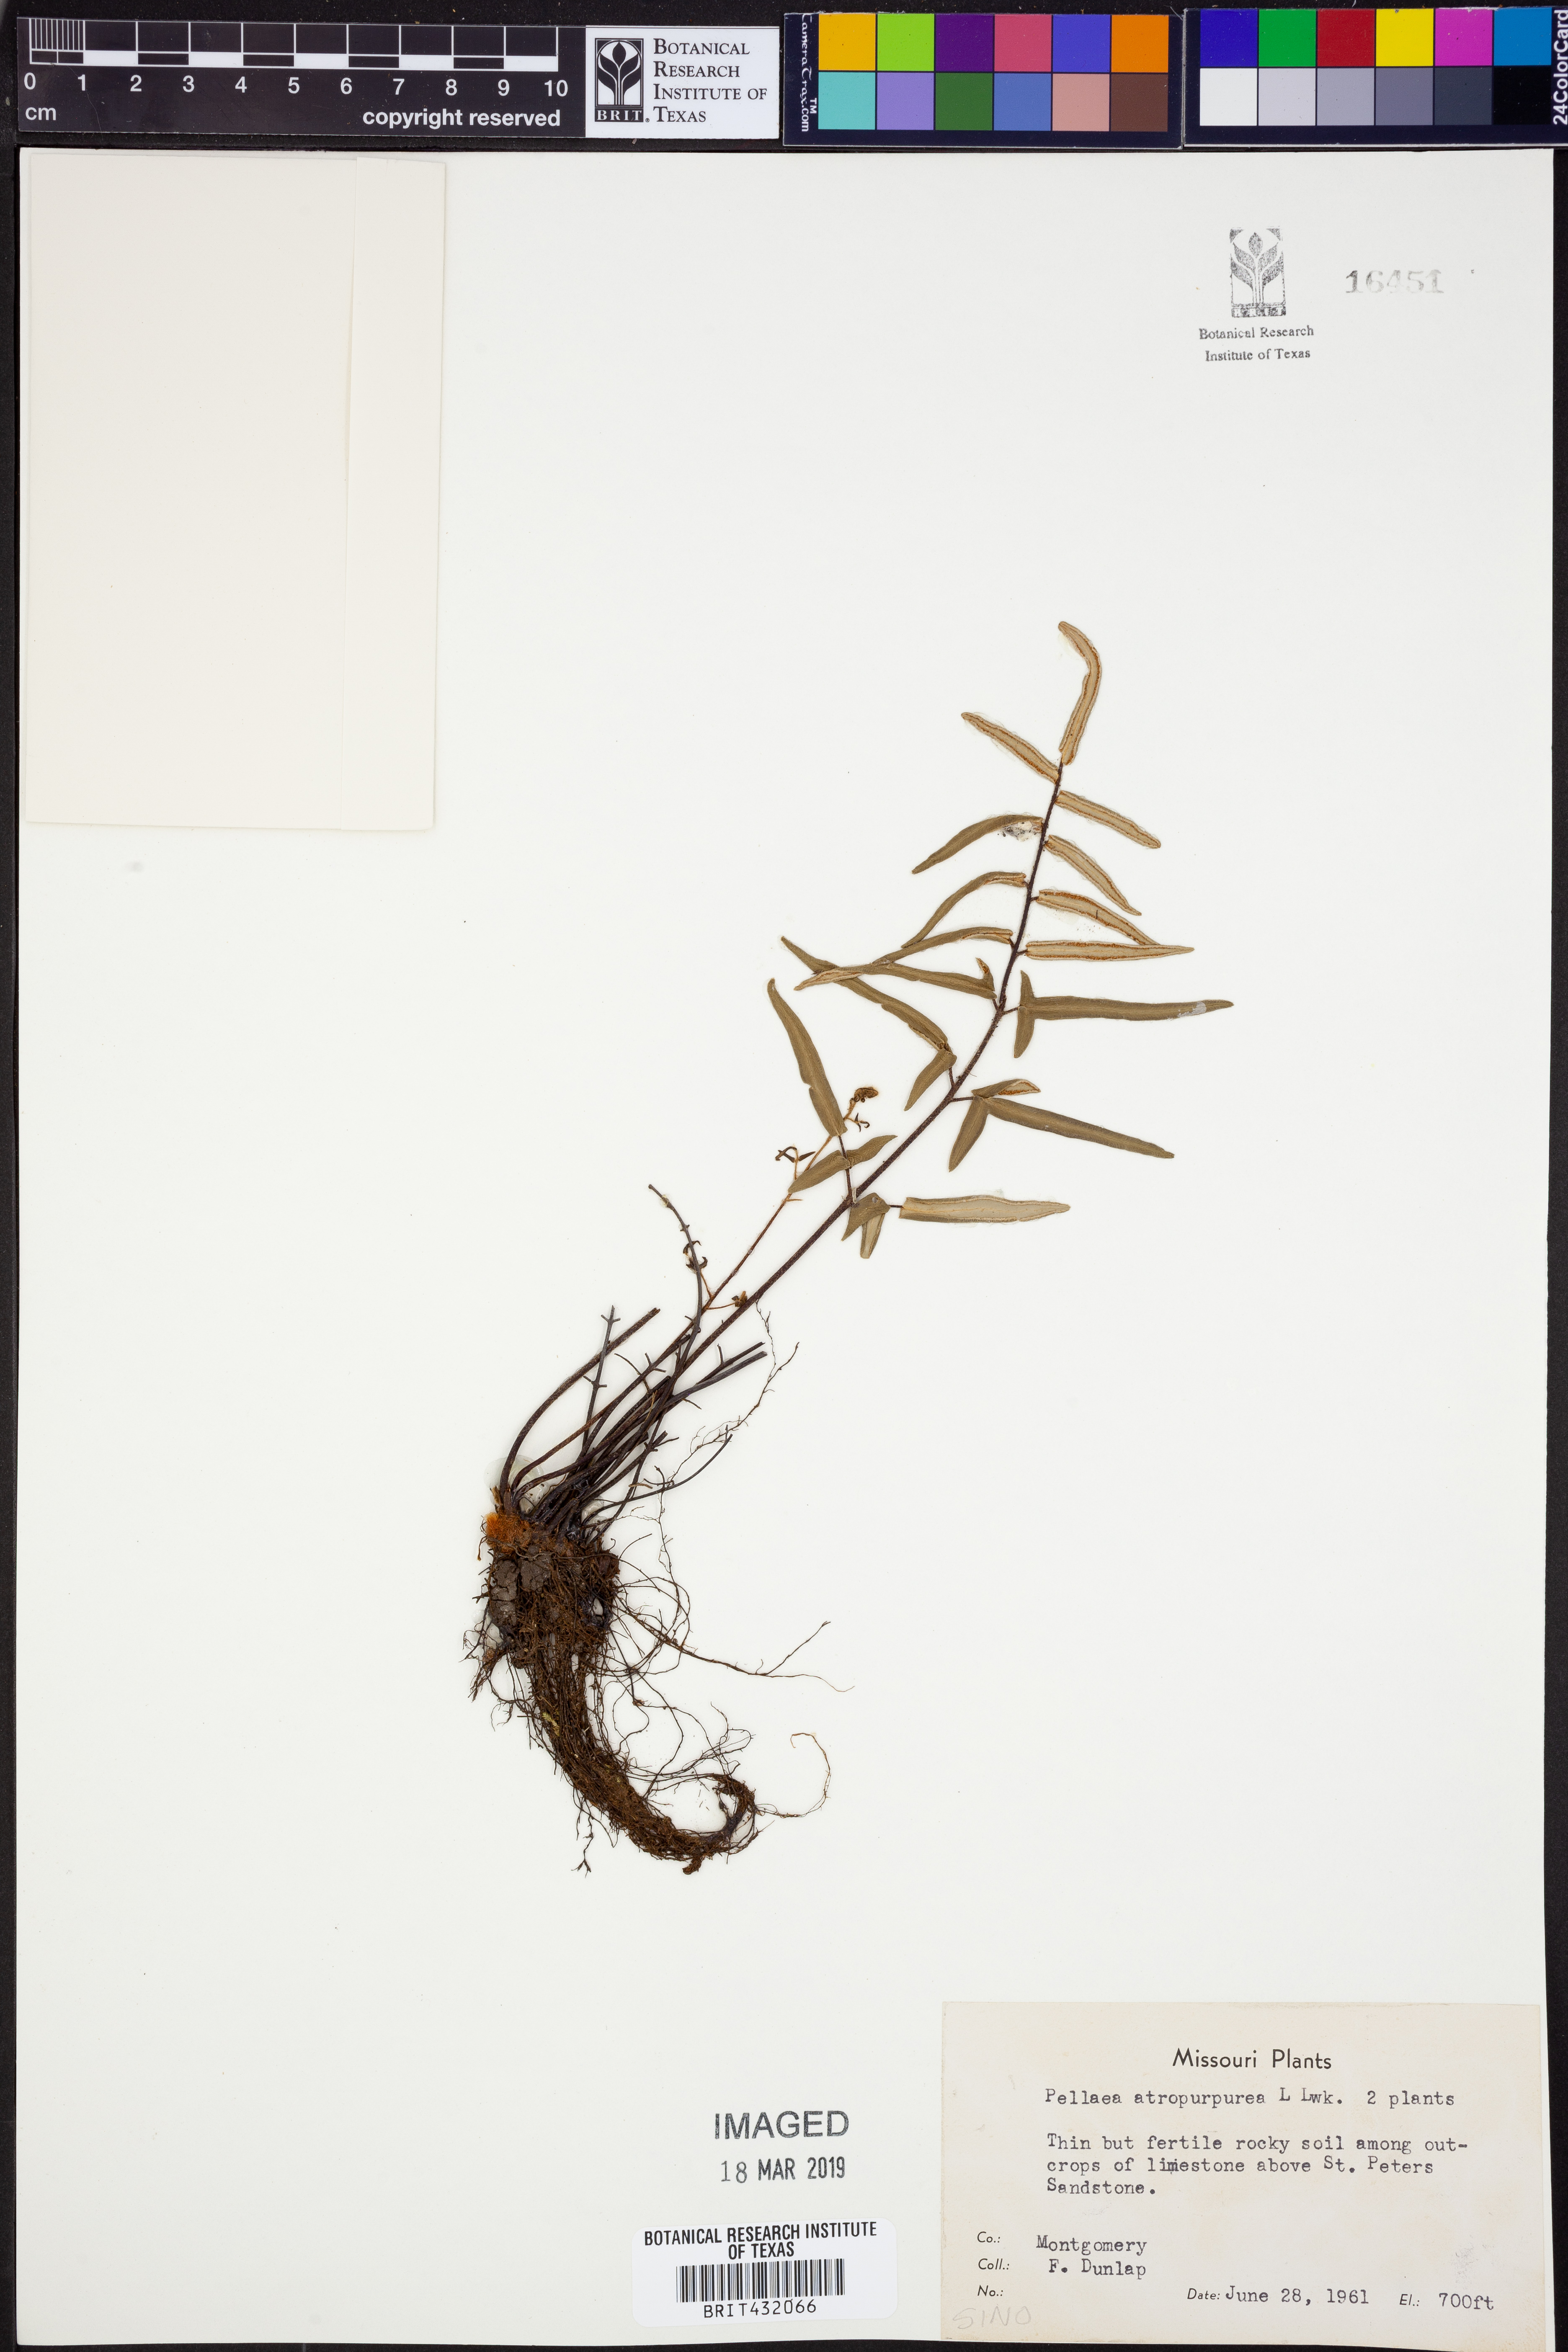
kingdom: Plantae
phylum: Tracheophyta
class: Polypodiopsida
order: Polypodiales
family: Pteridaceae
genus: Pellaea
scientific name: Pellaea atropurpurea
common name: Hairy cliffbrake
